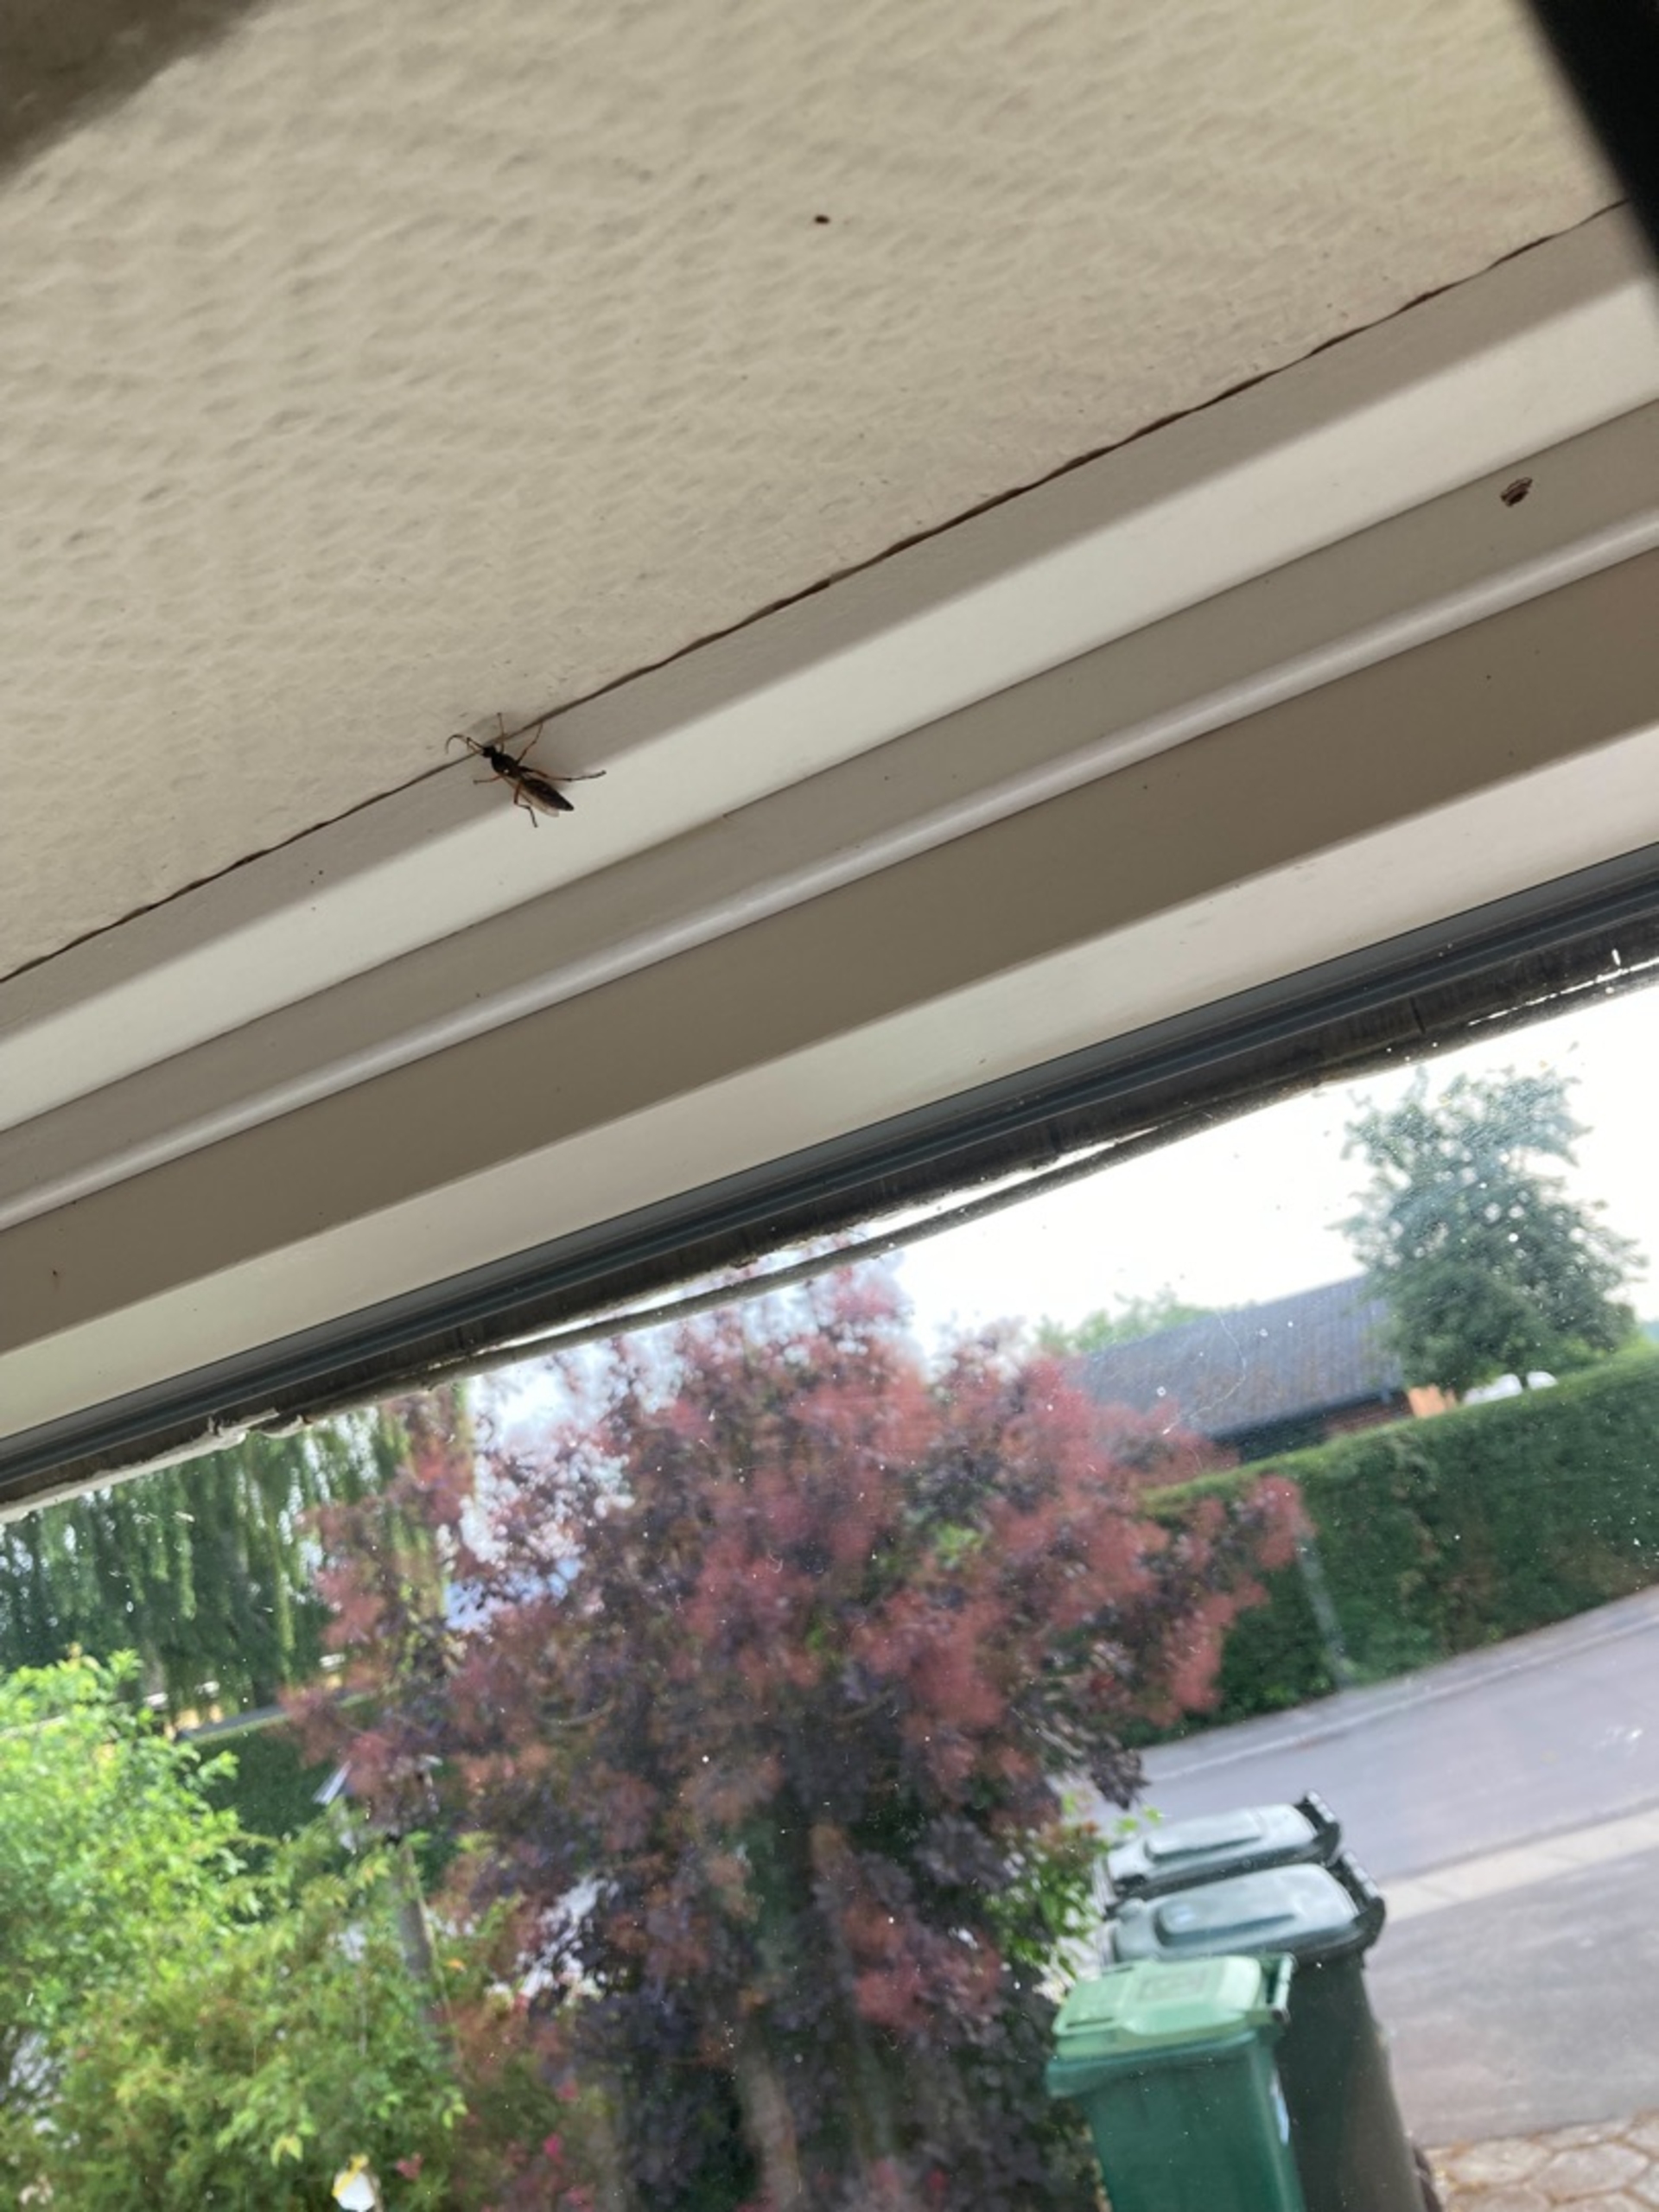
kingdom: Animalia
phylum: Arthropoda
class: Insecta
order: Hymenoptera
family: Ichneumonidae
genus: Diphyus
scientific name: Diphyus quadripunctorius
